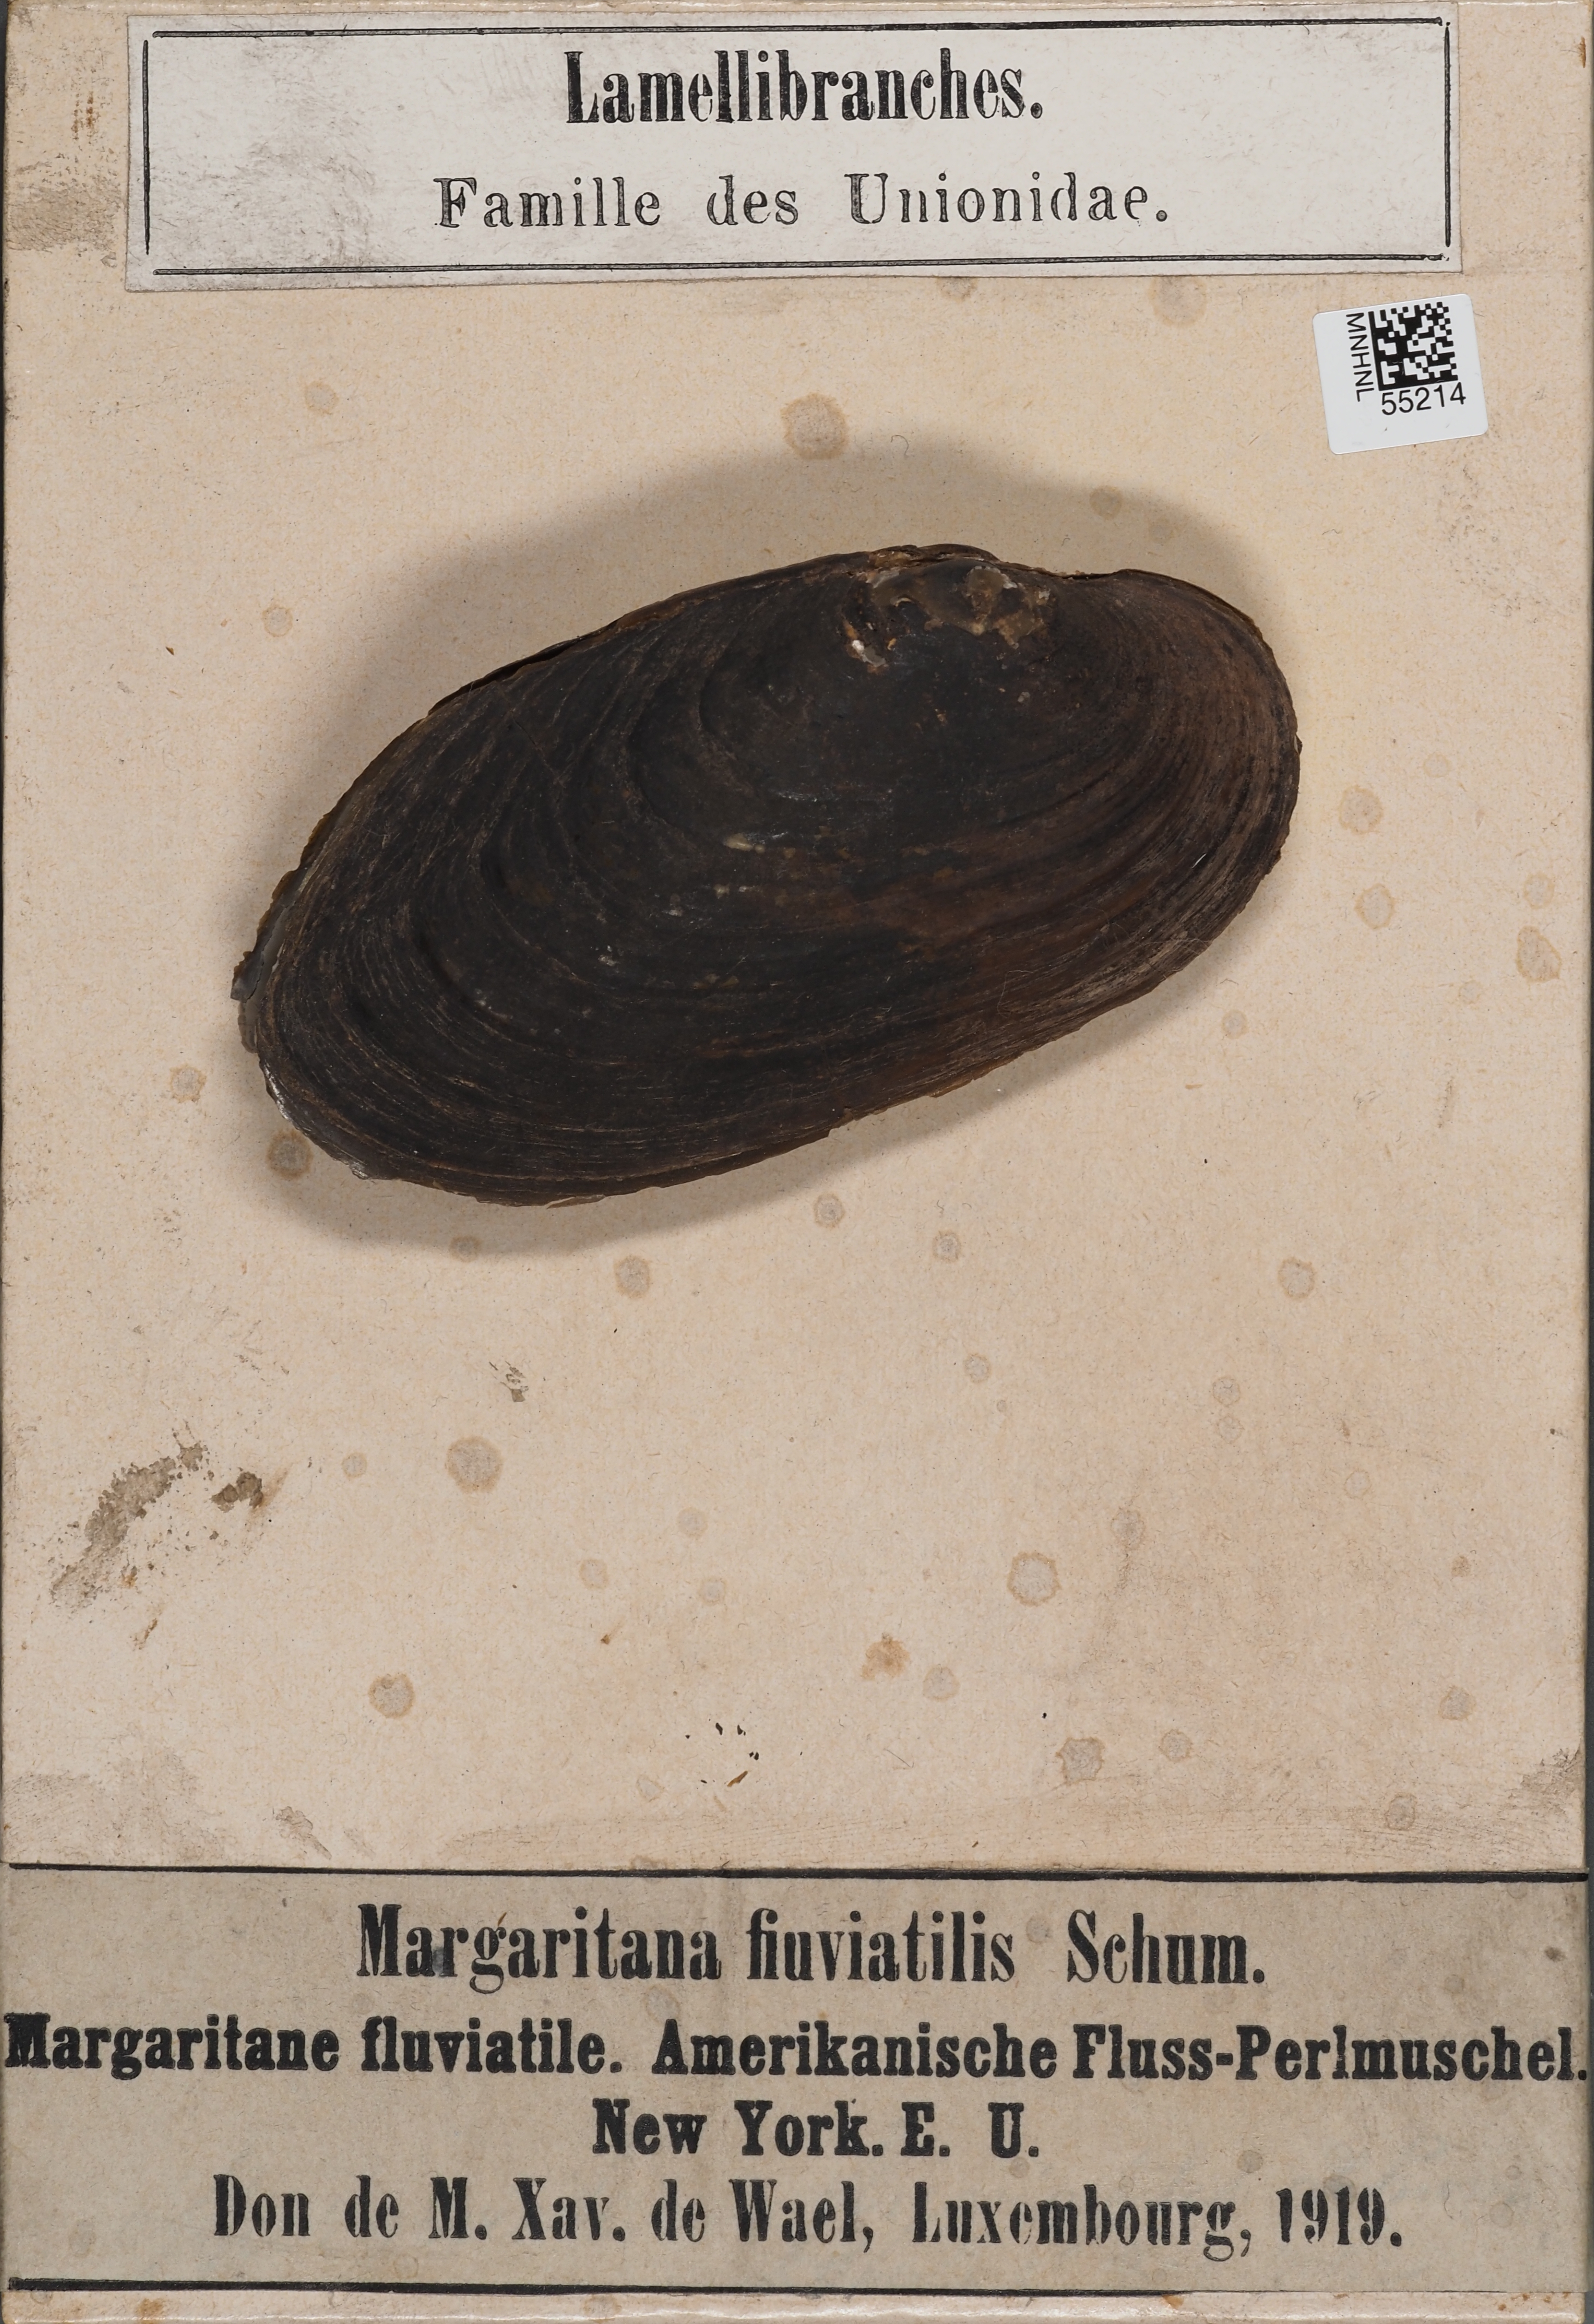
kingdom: Animalia
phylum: Mollusca
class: Bivalvia
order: Unionida
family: Margaritiferidae
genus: Margaritifera
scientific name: Margaritifera margaritifera
